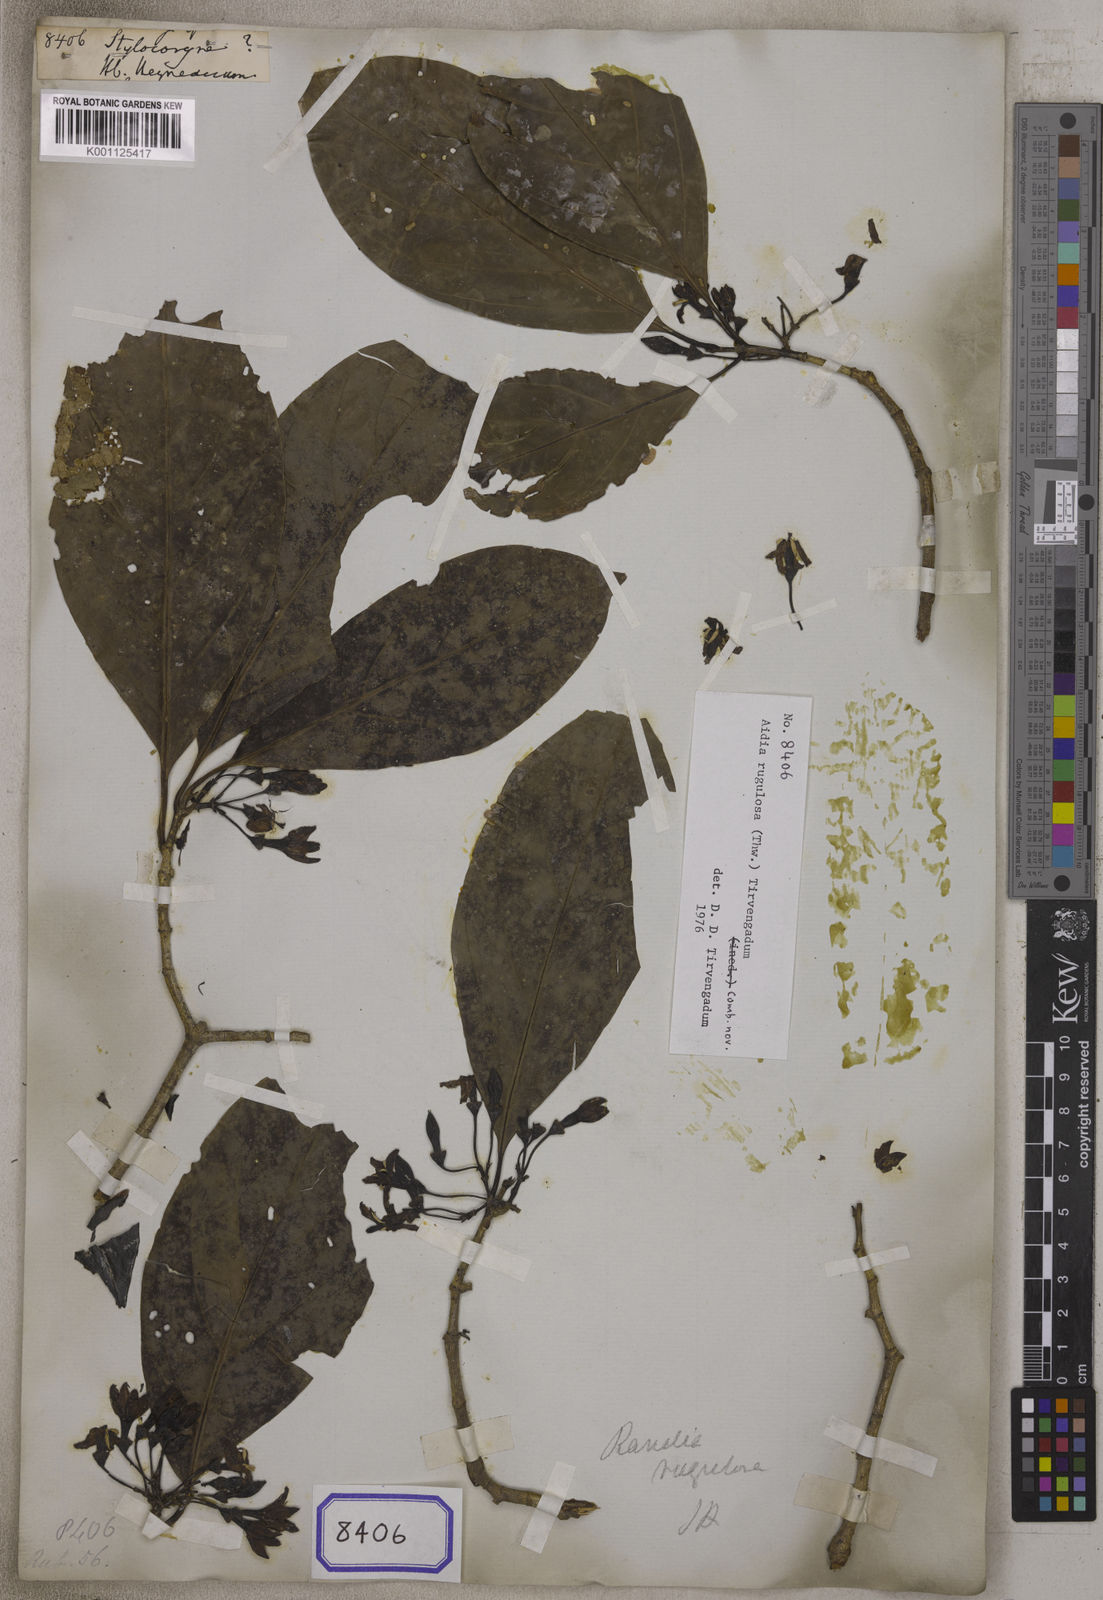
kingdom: Plantae
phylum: Tracheophyta
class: Magnoliopsida
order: Gentianales
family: Rubiaceae
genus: Aidia
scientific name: Aidia
